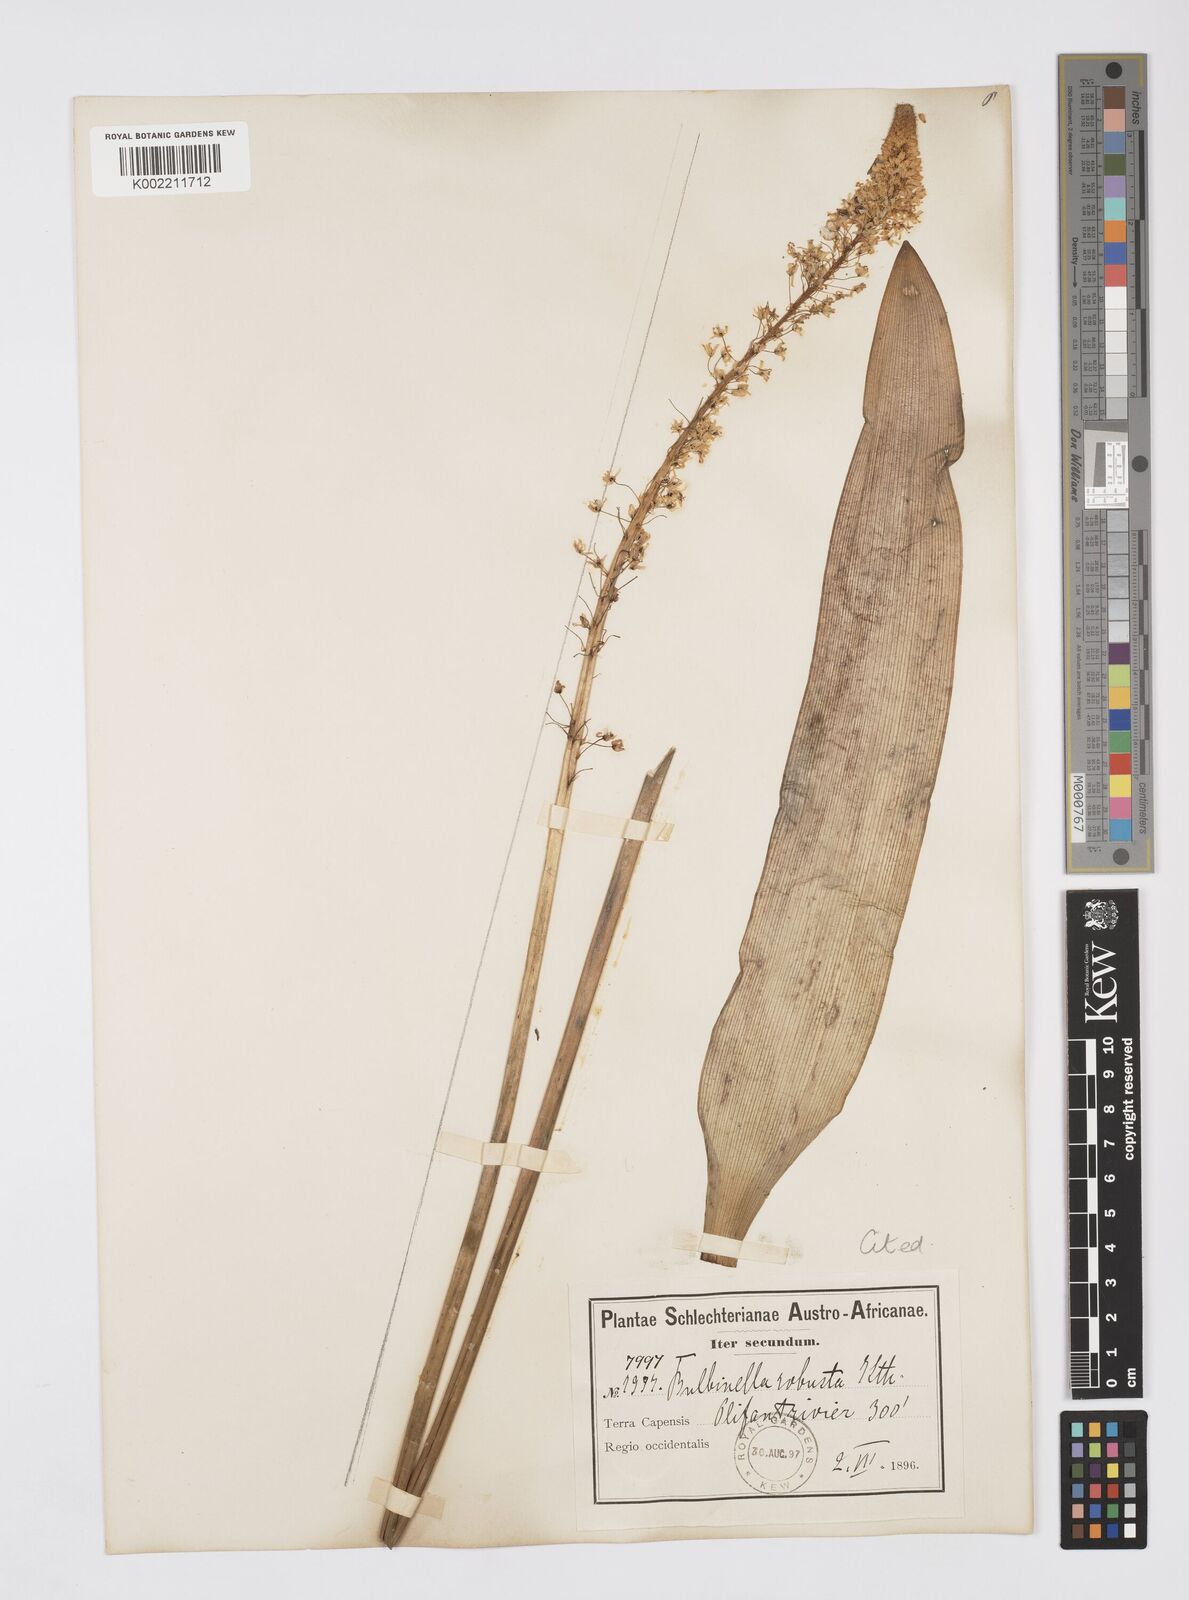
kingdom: Plantae
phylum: Tracheophyta
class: Liliopsida
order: Asparagales
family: Asphodelaceae
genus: Bulbinella
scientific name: Bulbinella elata
